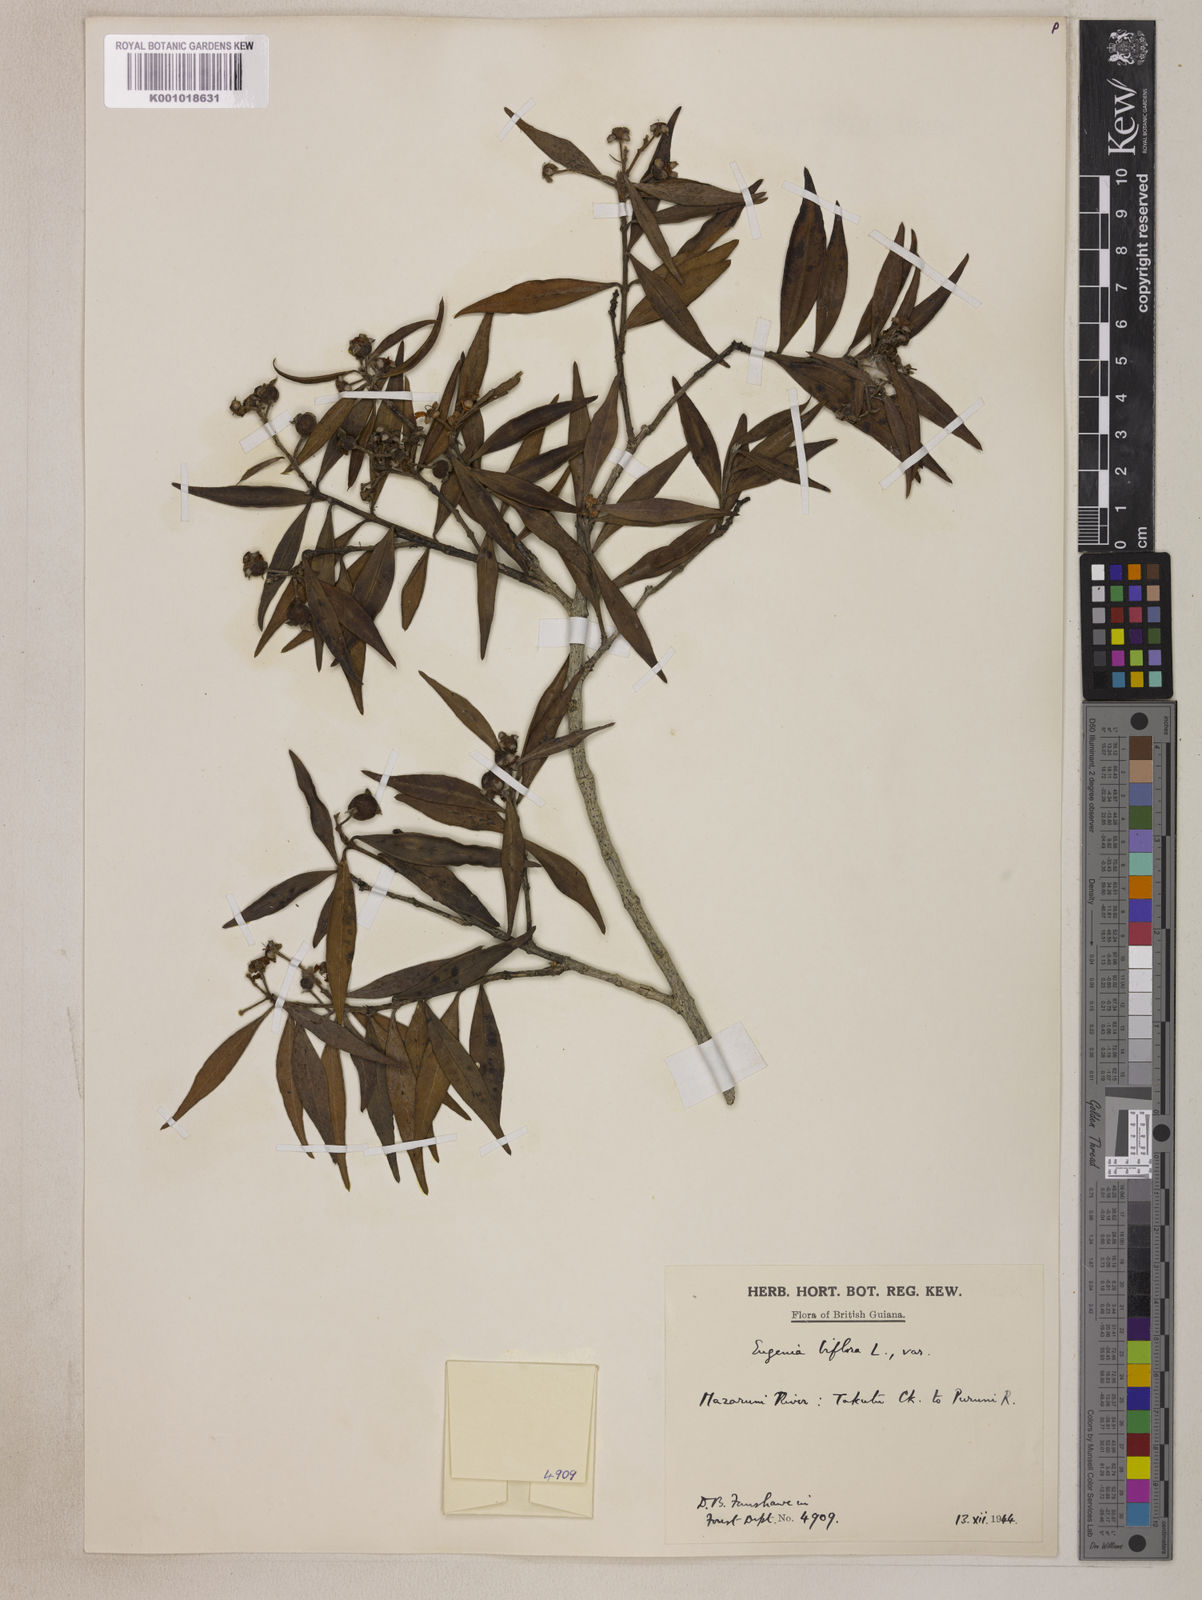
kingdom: Plantae
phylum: Tracheophyta
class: Magnoliopsida
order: Myrtales
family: Myrtaceae
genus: Eugenia
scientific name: Eugenia biflora
